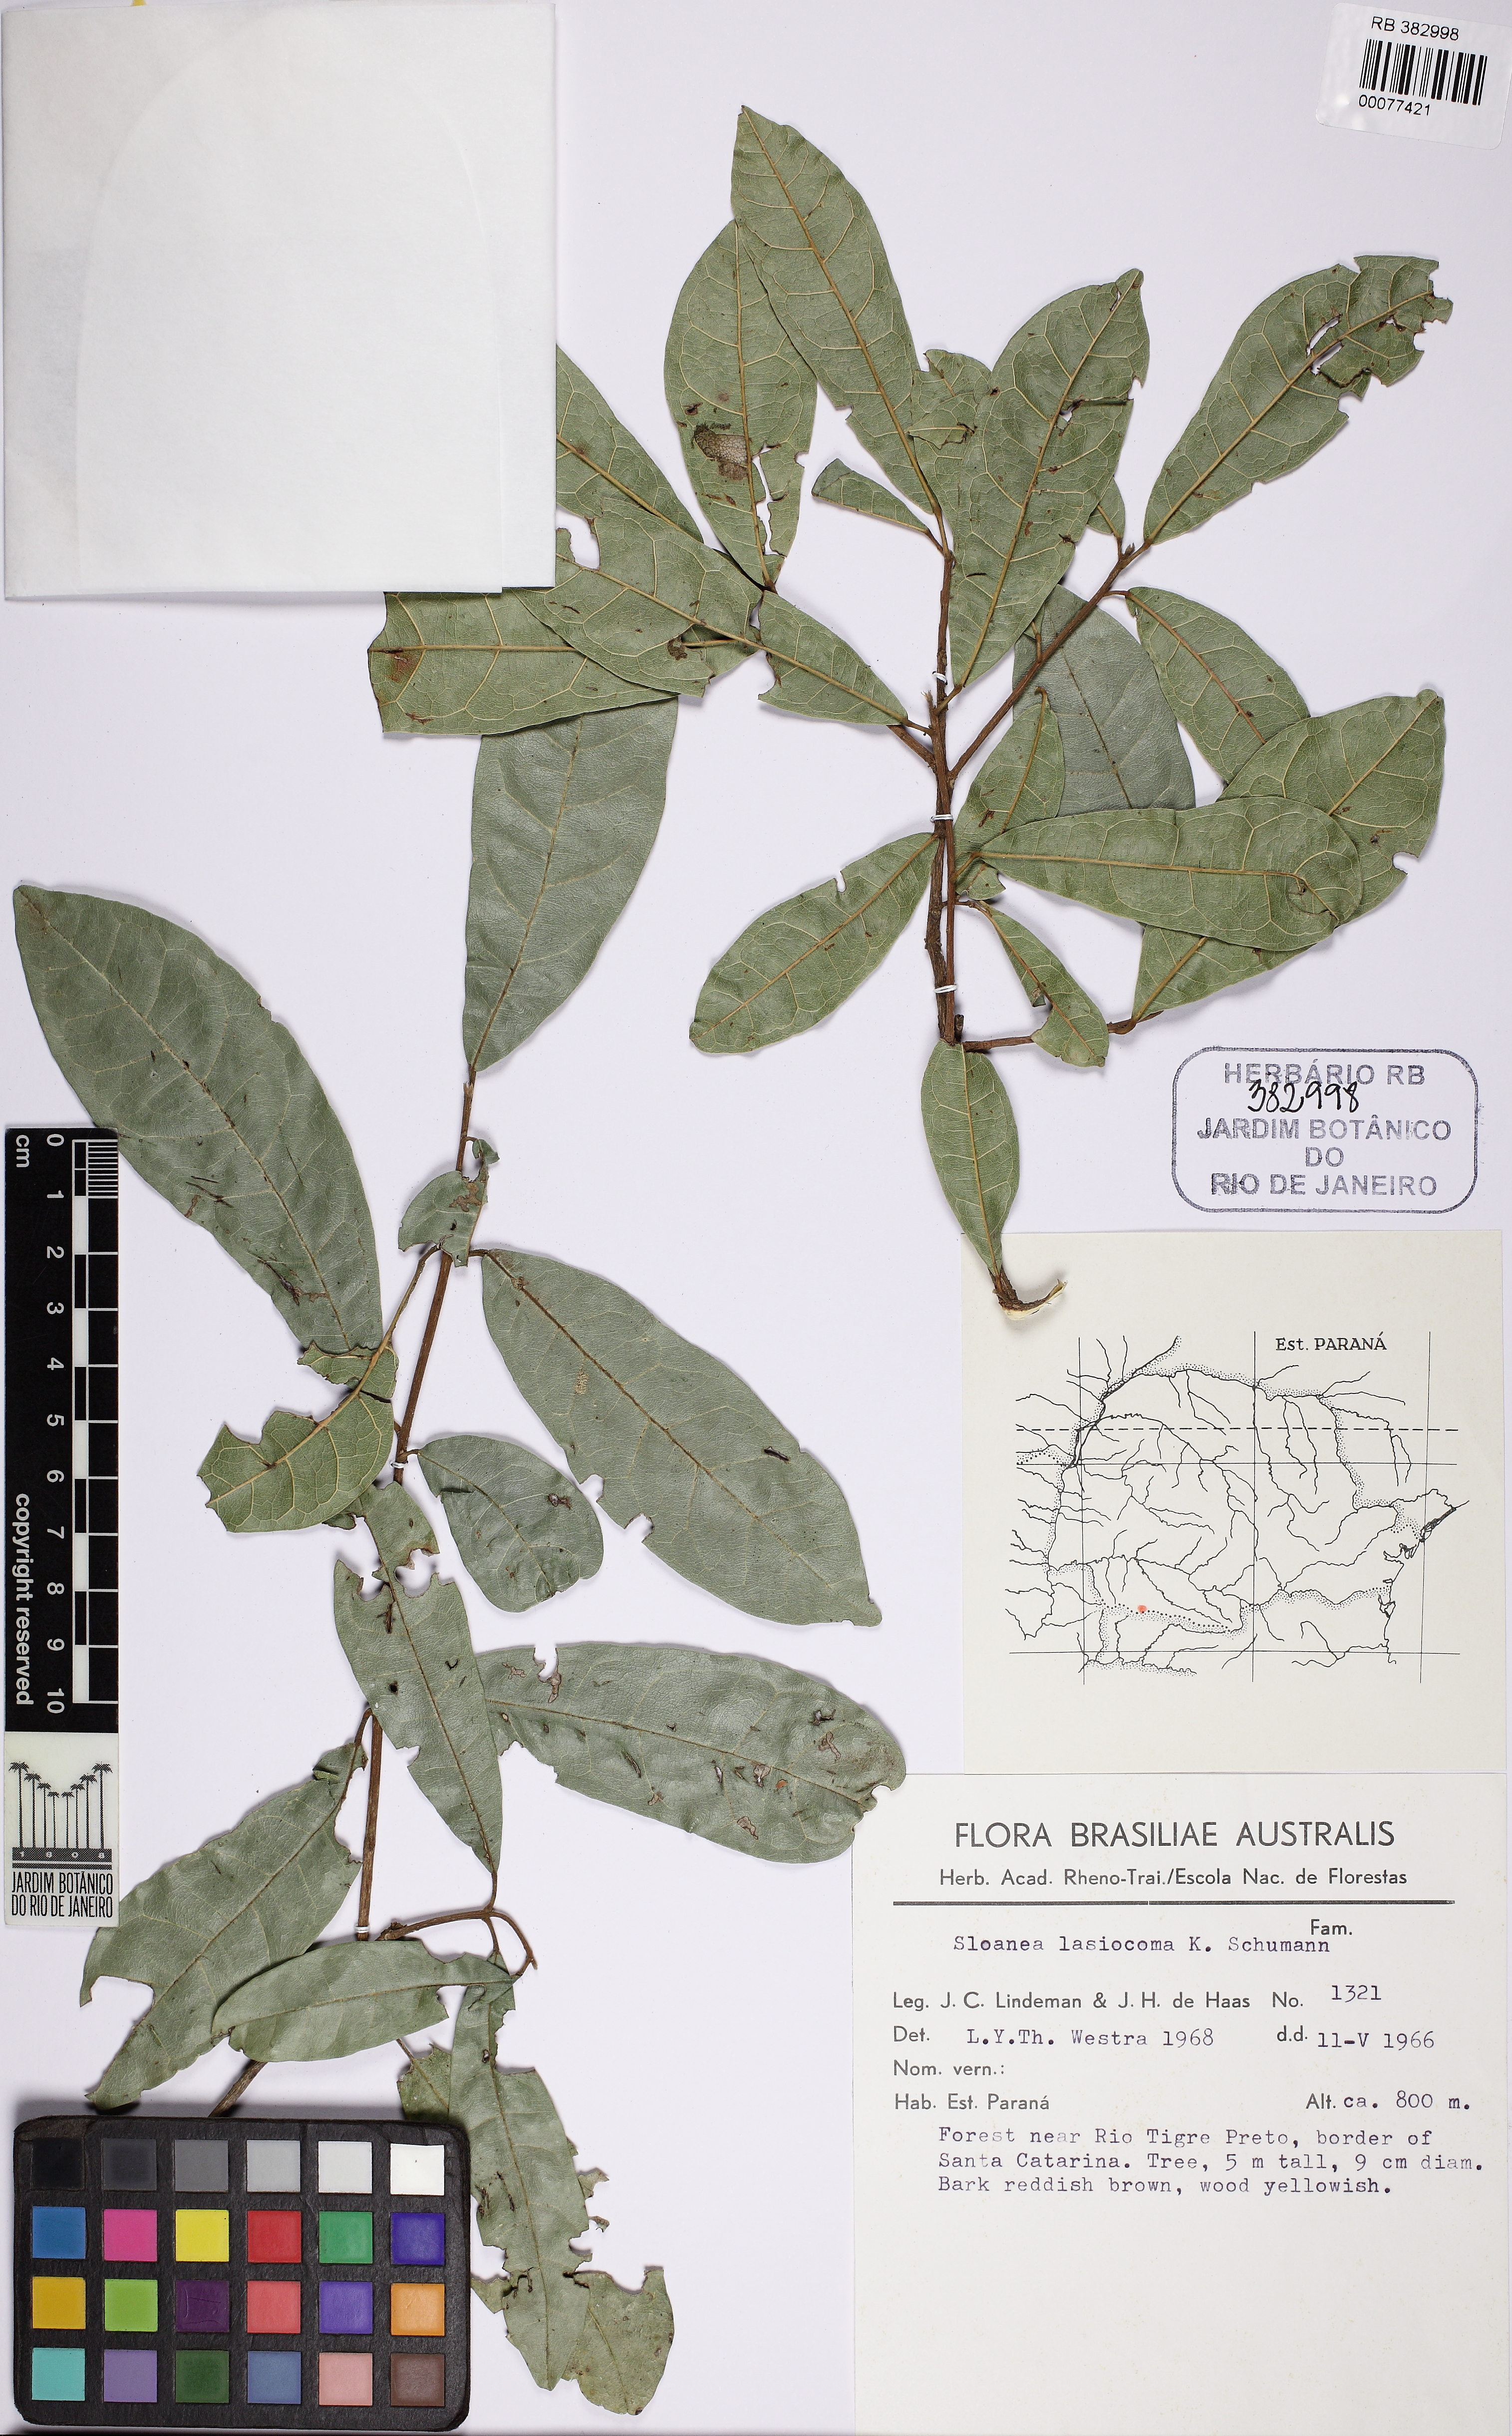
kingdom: Plantae
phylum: Tracheophyta
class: Magnoliopsida
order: Oxalidales
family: Elaeocarpaceae
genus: Sloanea
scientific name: Sloanea hirsuta
